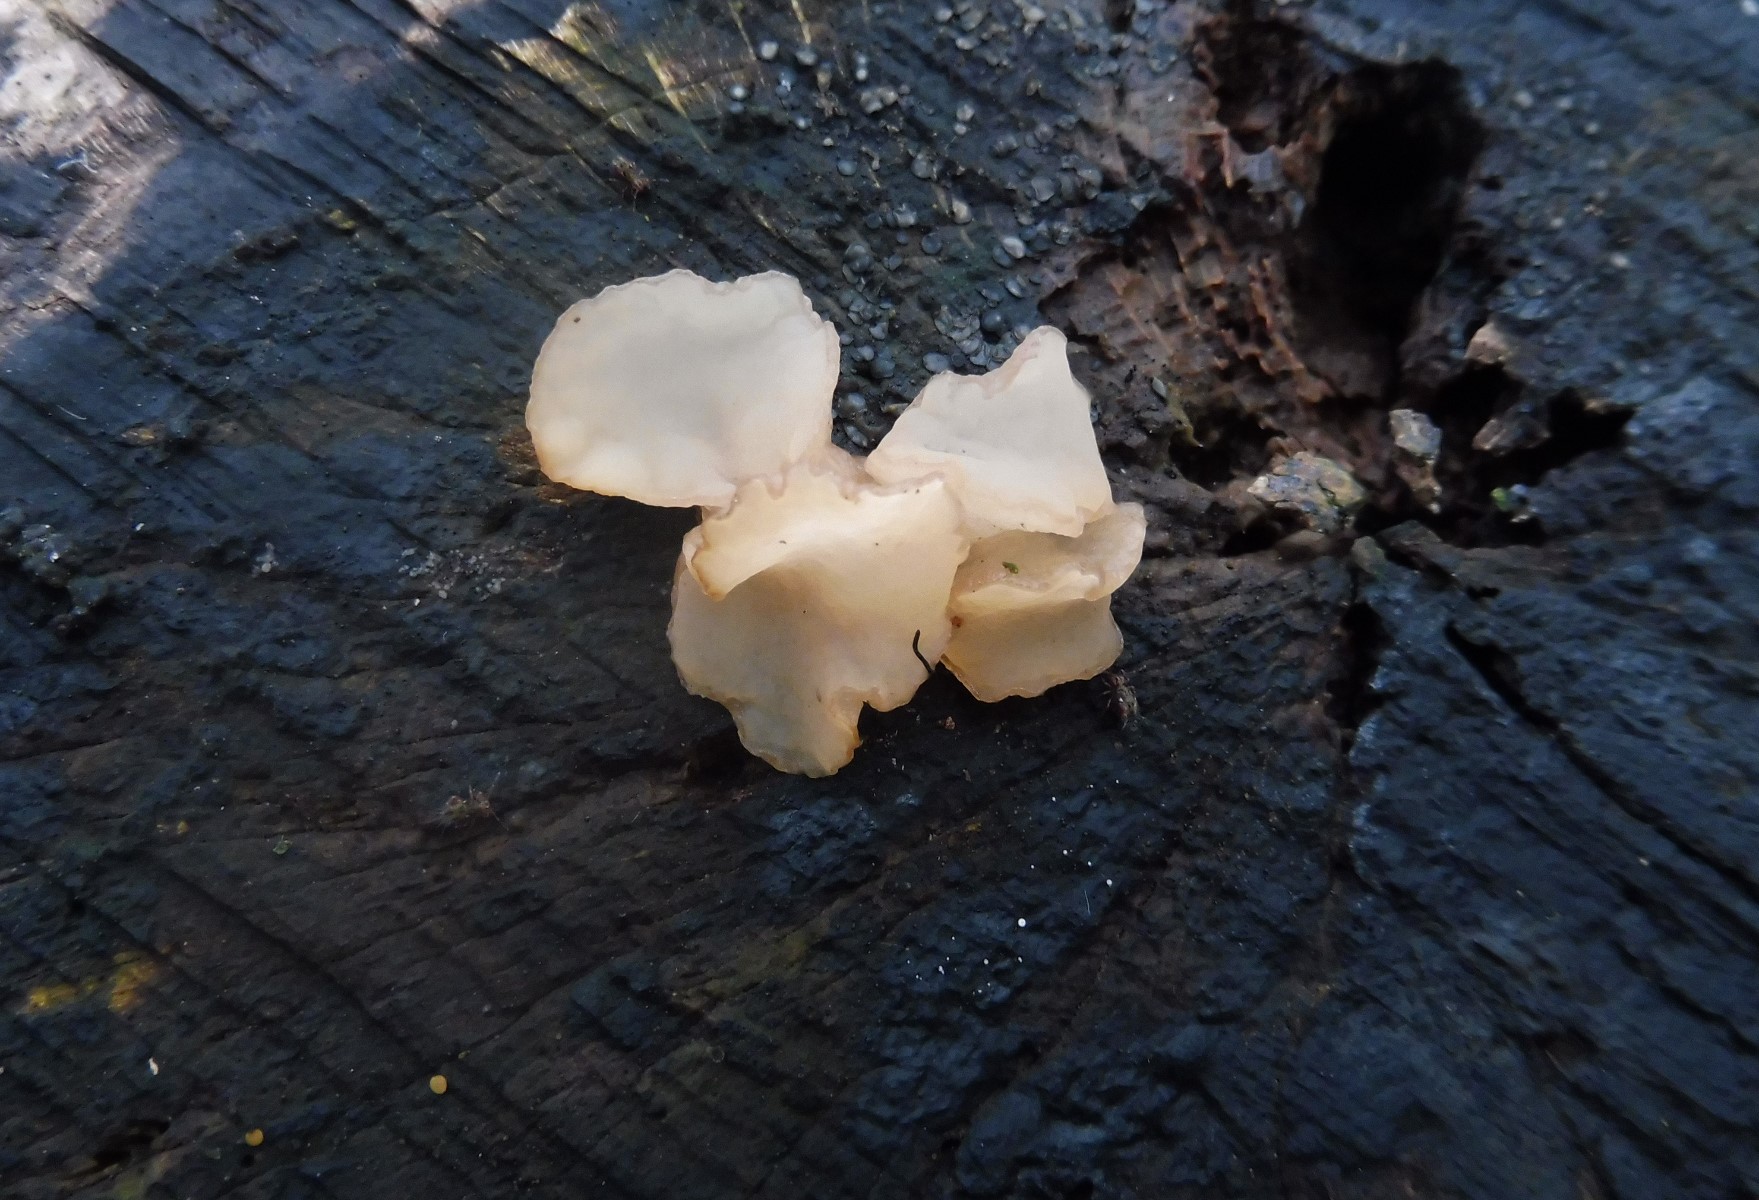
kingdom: Fungi
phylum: Ascomycota
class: Leotiomycetes
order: Helotiales
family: Gelatinodiscaceae
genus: Neobulgaria
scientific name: Neobulgaria pura
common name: bleg bævreskive
